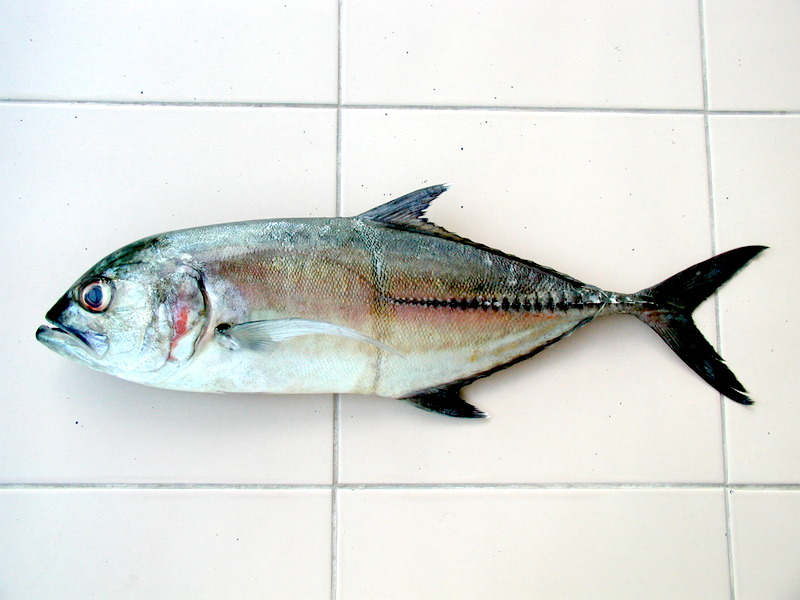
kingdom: Animalia
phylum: Chordata
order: Perciformes
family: Carangidae
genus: Caranx
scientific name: Caranx sexfasciatus
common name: Bigeye trevally
